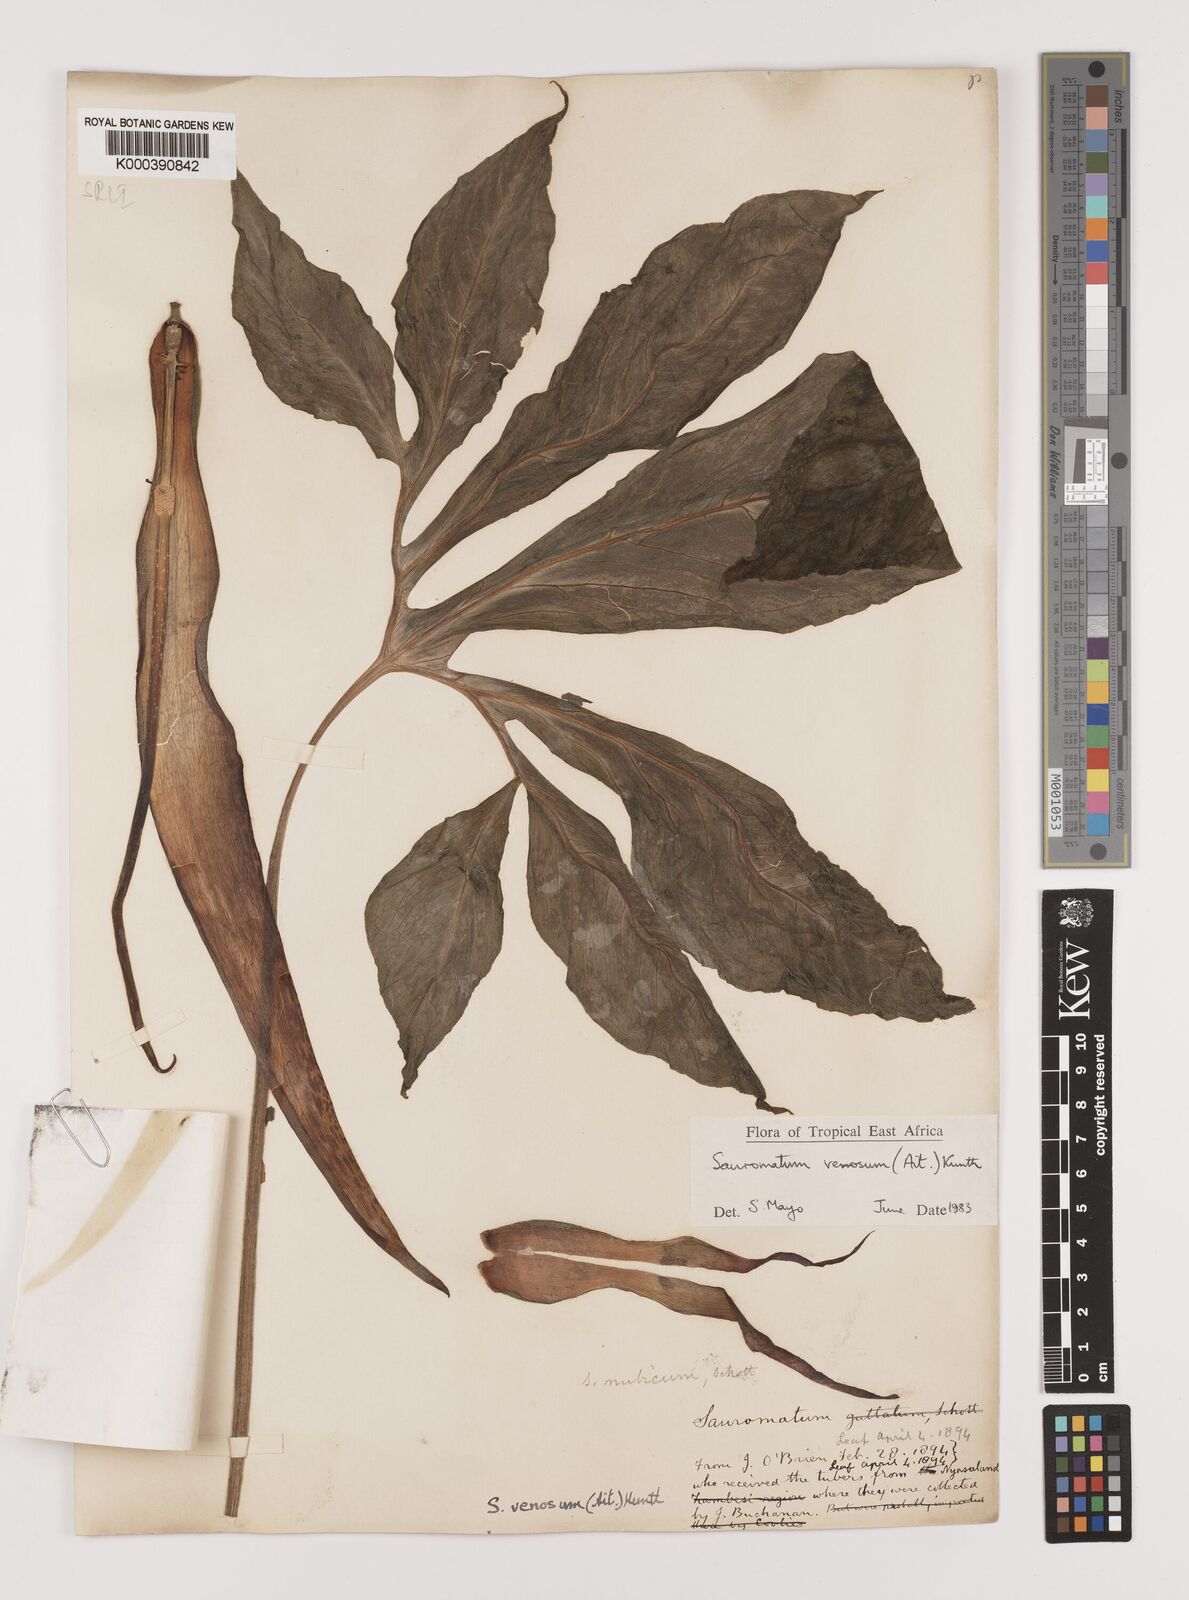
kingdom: Plantae
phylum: Tracheophyta
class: Liliopsida
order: Alismatales
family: Araceae
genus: Sauromatum
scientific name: Sauromatum venosum
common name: Voodoo lily
